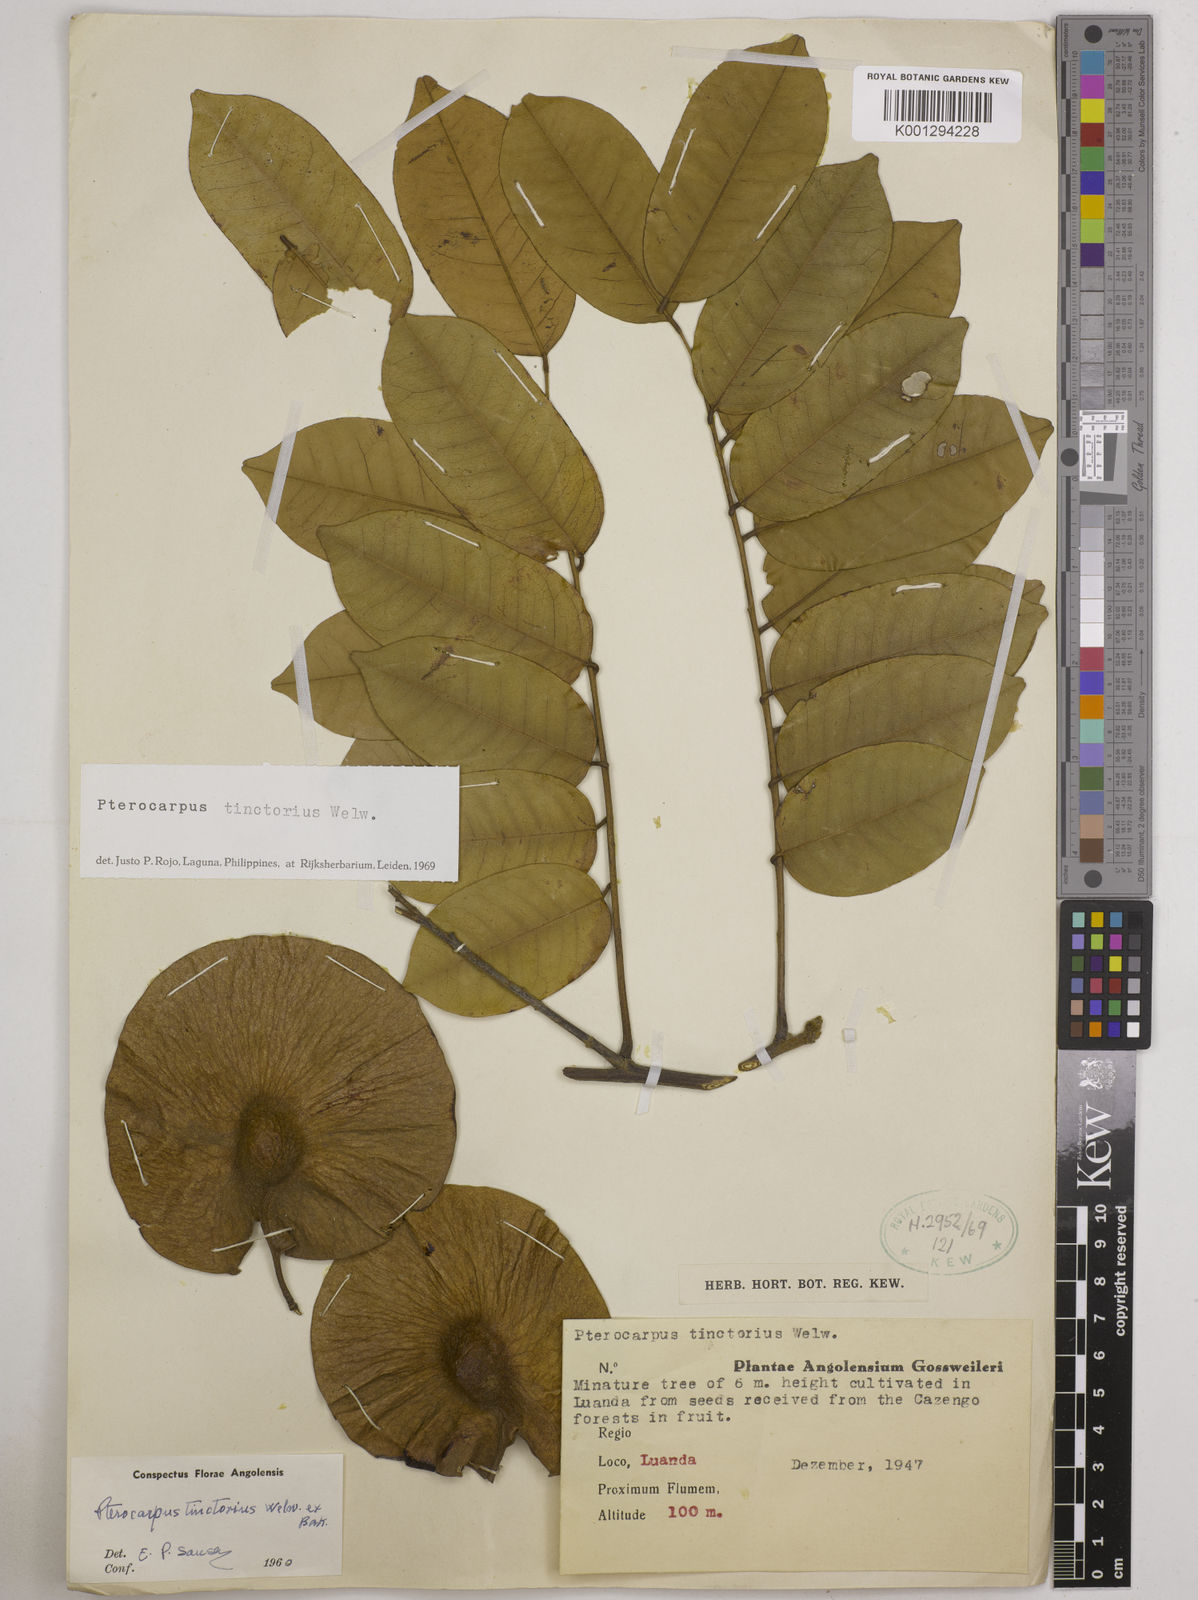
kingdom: Plantae
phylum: Tracheophyta
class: Magnoliopsida
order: Fabales
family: Fabaceae
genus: Pterocarpus
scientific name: Pterocarpus tinctorius
